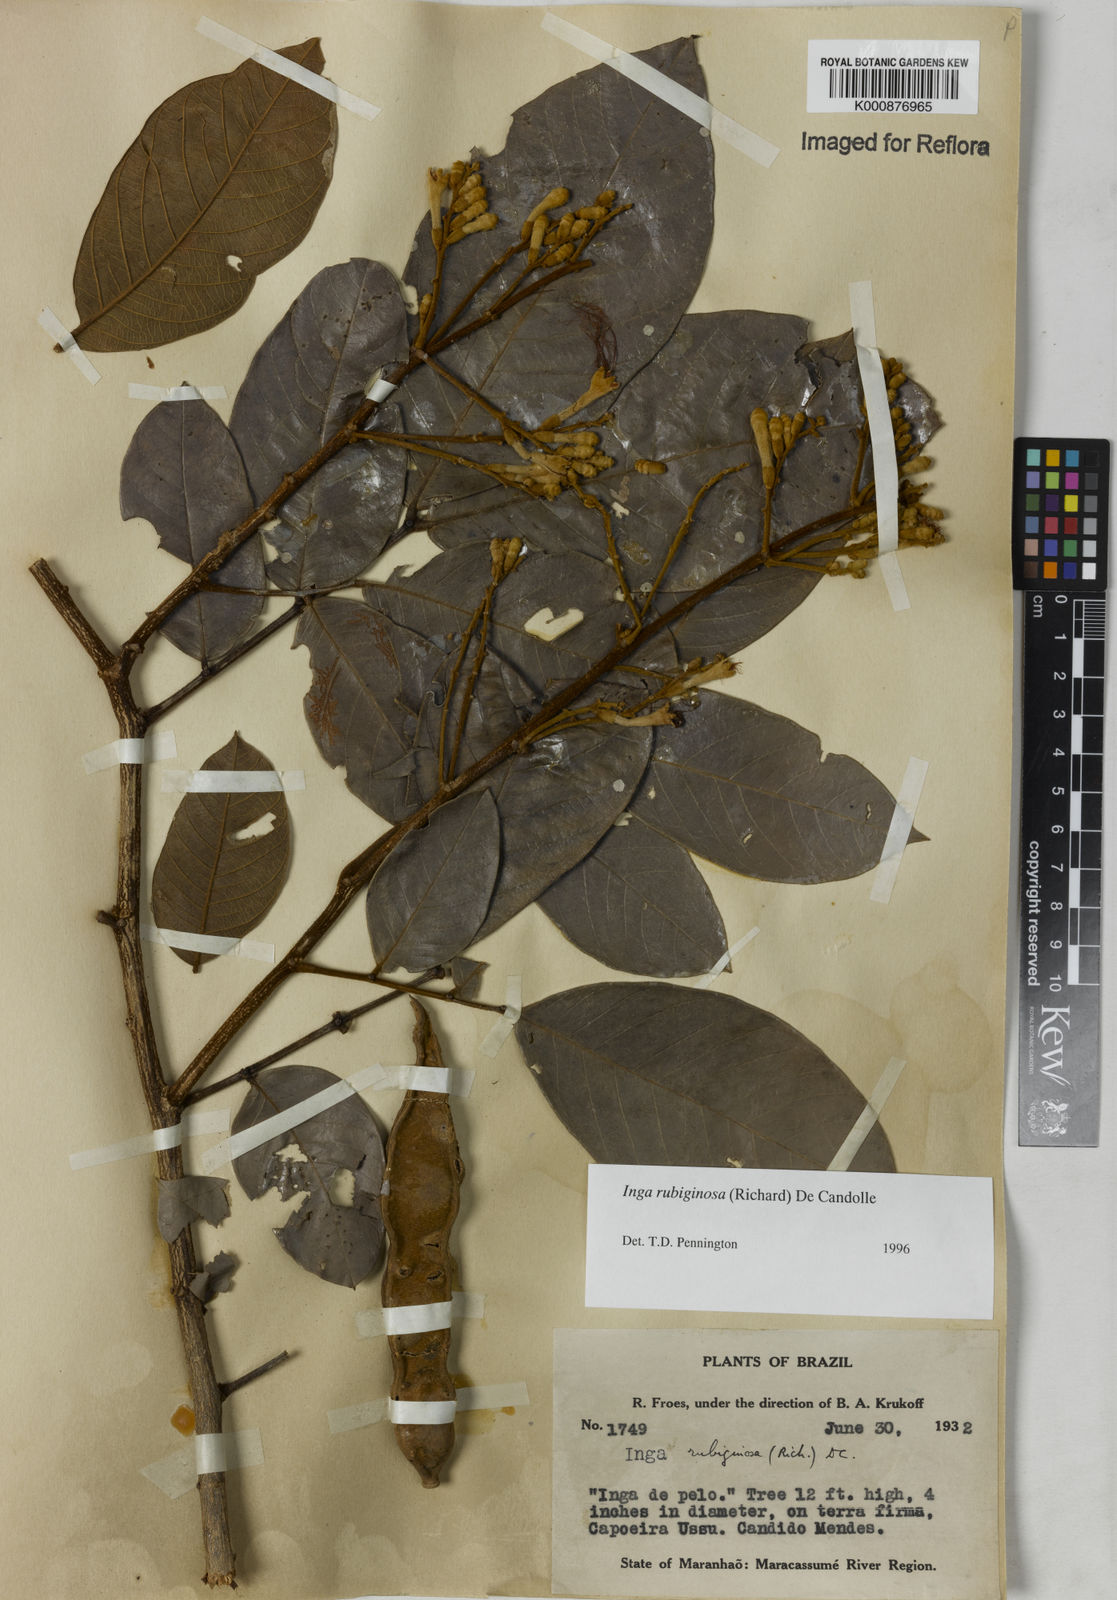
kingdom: Plantae
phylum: Tracheophyta
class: Magnoliopsida
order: Fabales
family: Fabaceae
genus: Inga
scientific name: Inga rubiginosa
